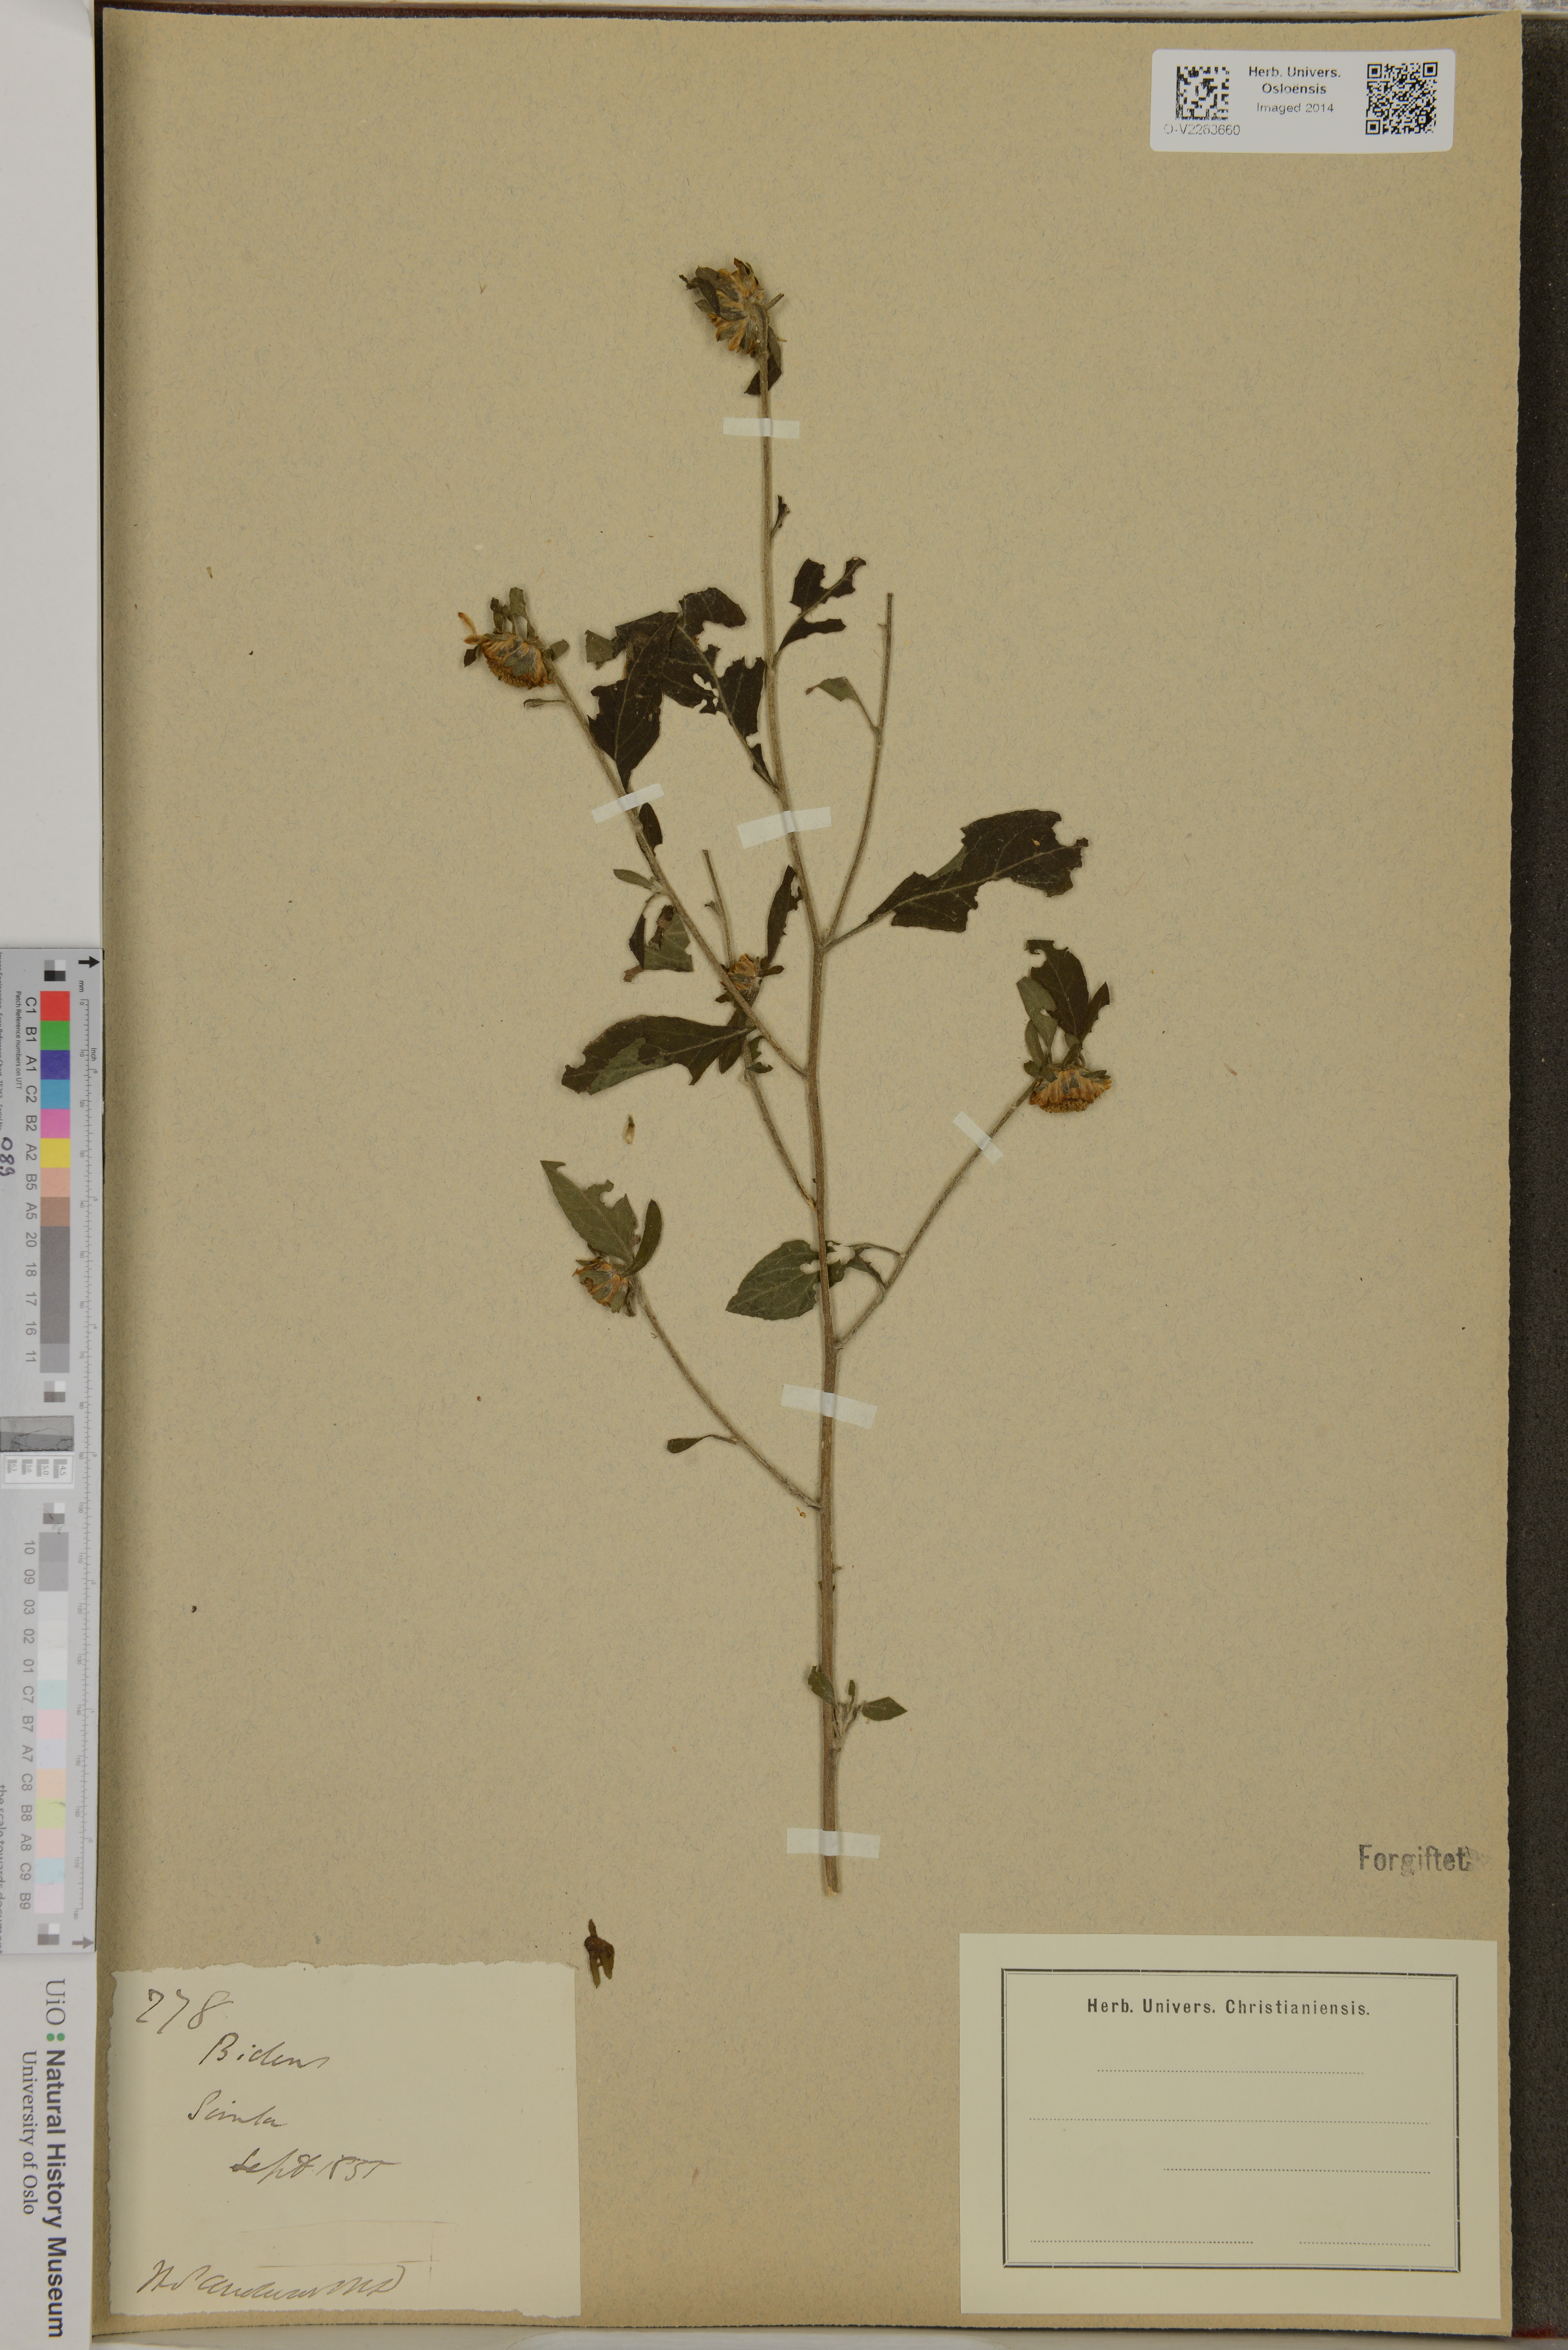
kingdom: Plantae
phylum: Tracheophyta
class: Magnoliopsida
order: Asterales
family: Asteraceae
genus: Bidens
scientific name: Bidens
